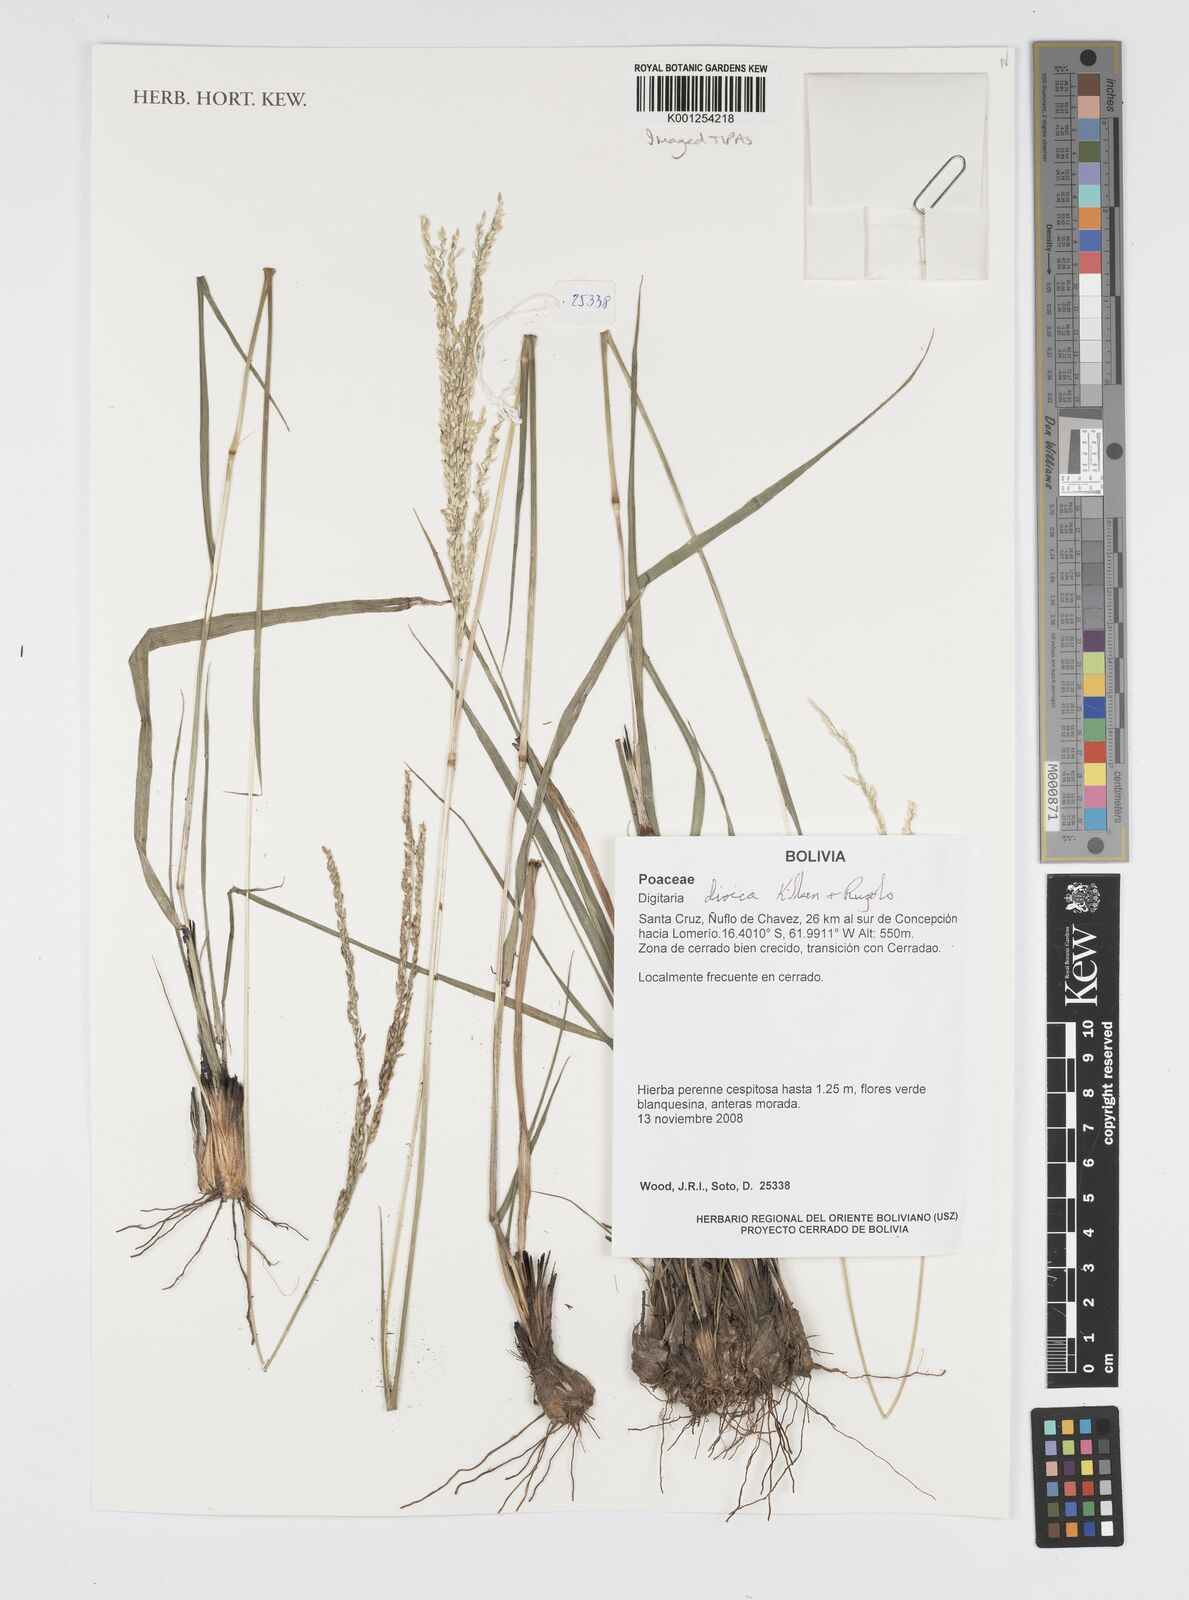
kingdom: Plantae
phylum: Tracheophyta
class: Liliopsida
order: Poales
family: Poaceae
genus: Digitaria
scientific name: Digitaria dioica
